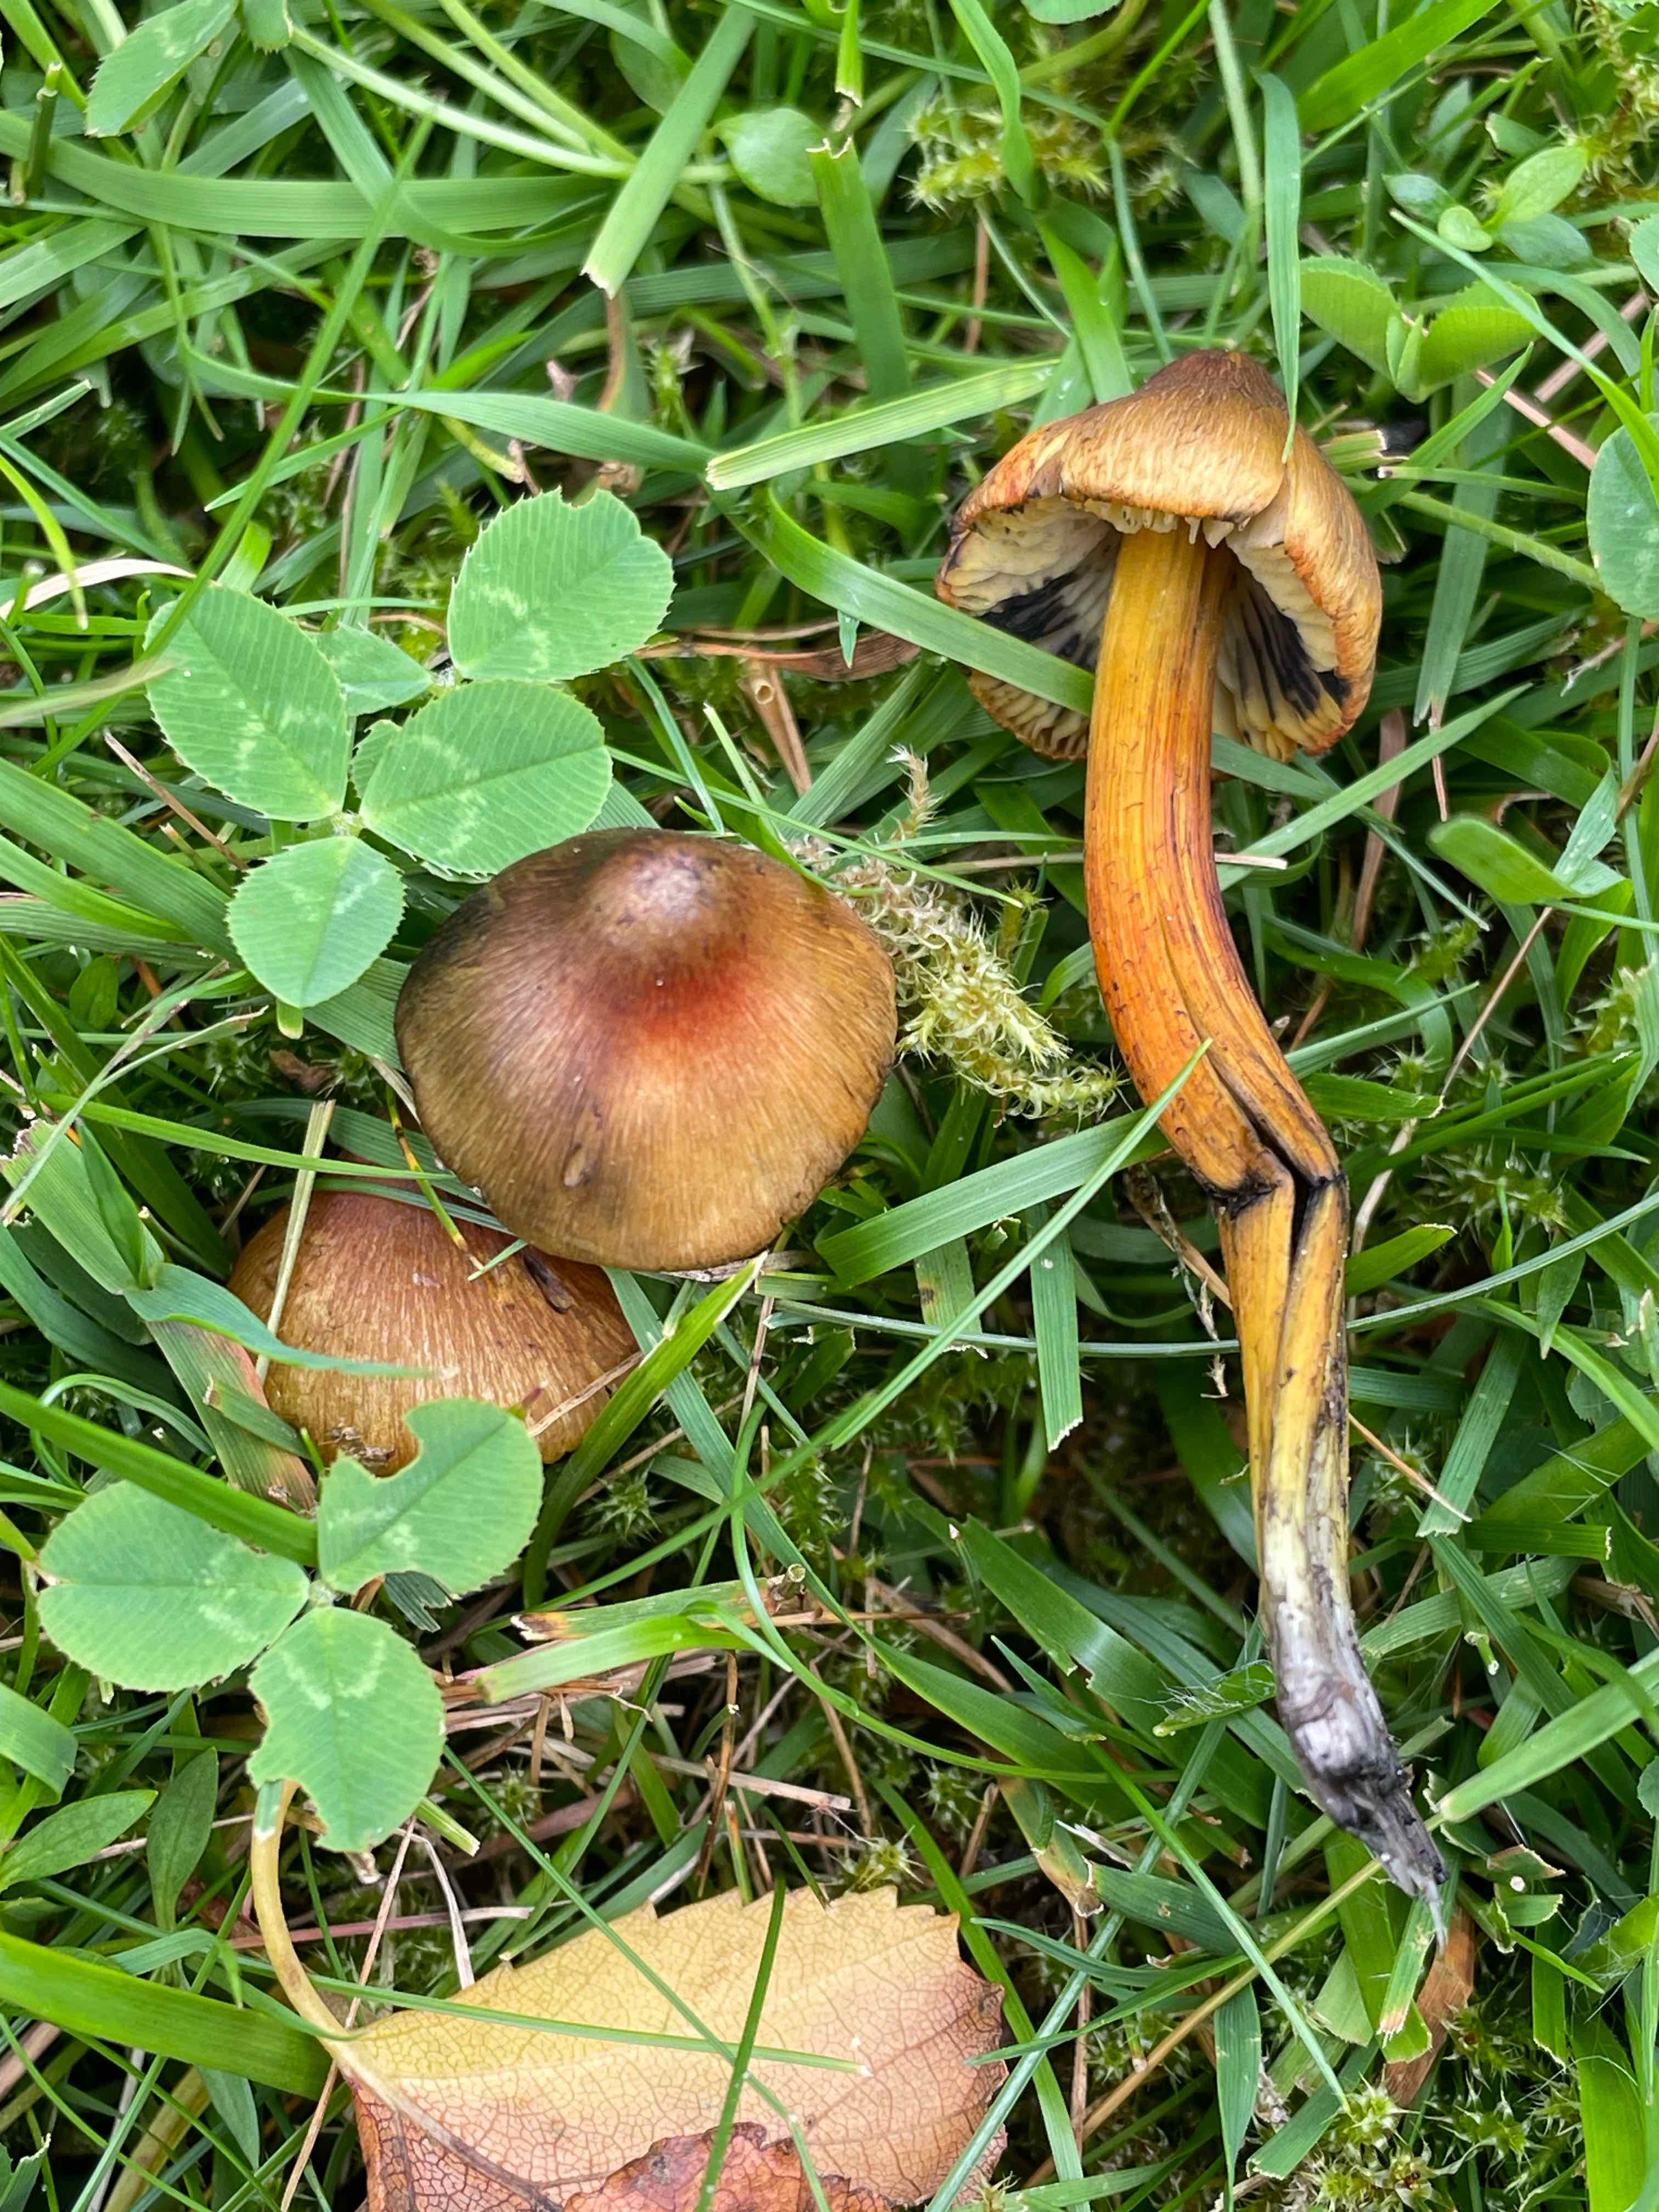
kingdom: Fungi
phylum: Basidiomycota
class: Agaricomycetes
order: Agaricales
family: Hygrophoraceae
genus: Hygrocybe
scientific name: Hygrocybe conica
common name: kegle-vokshat
